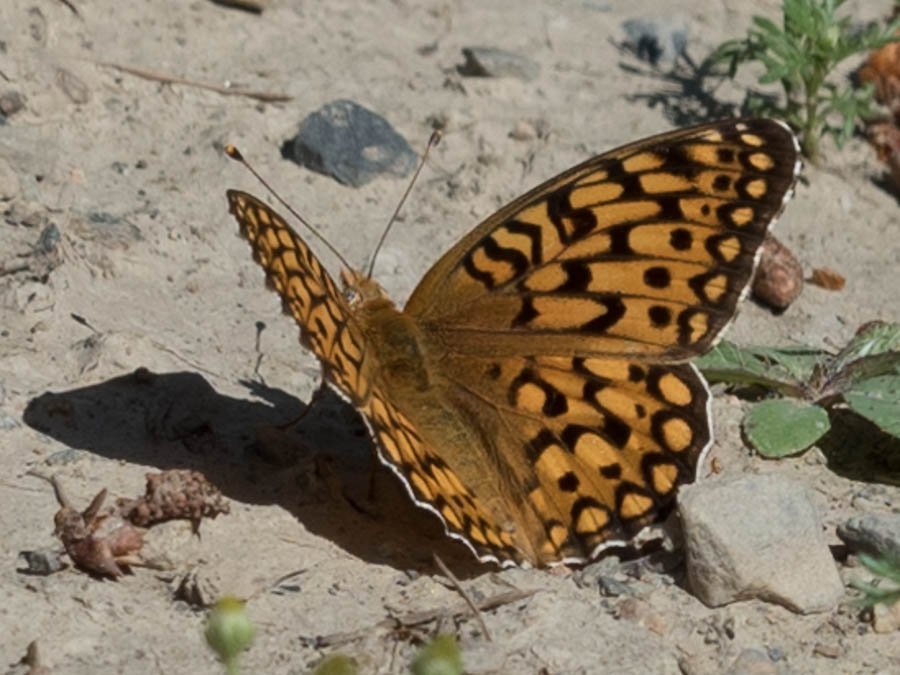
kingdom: Animalia
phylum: Arthropoda
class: Insecta
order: Lepidoptera
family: Nymphalidae
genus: Speyeria
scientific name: Speyeria callippe
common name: Callippe Fritillary
